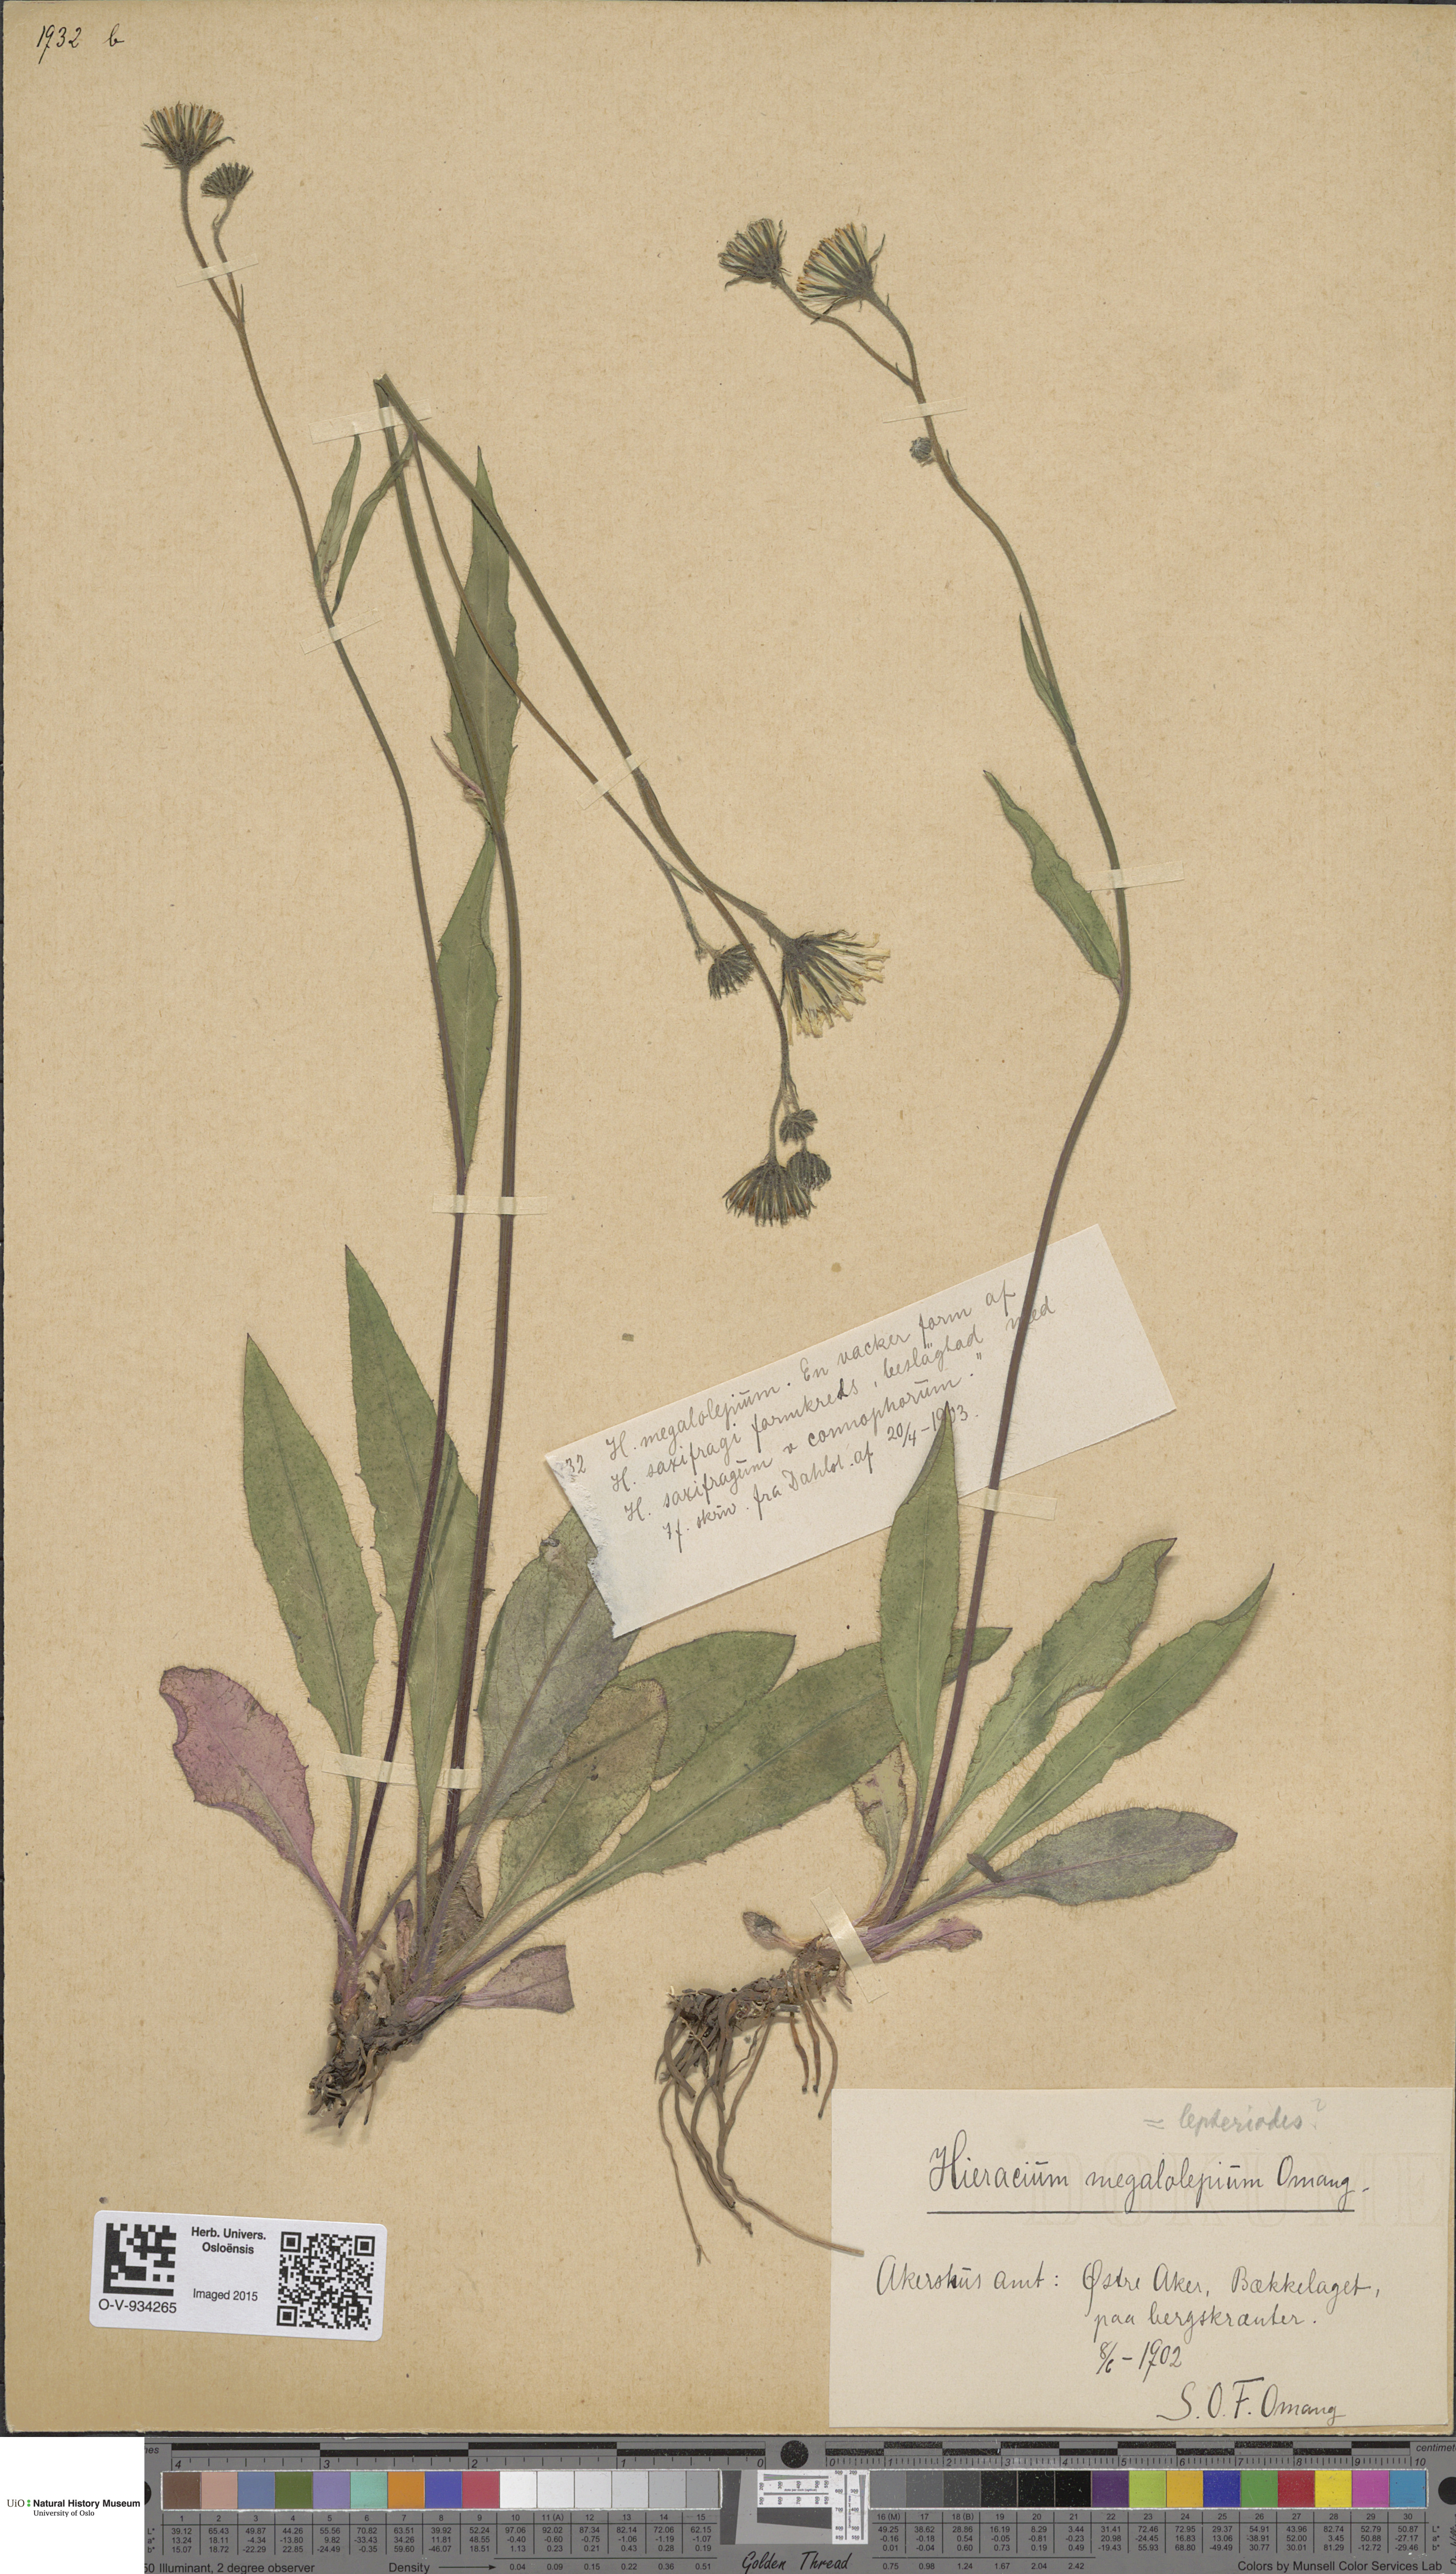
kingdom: Plantae
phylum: Tracheophyta
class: Magnoliopsida
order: Asterales
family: Asteraceae
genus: Hieracium
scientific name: Hieracium saxifragum
